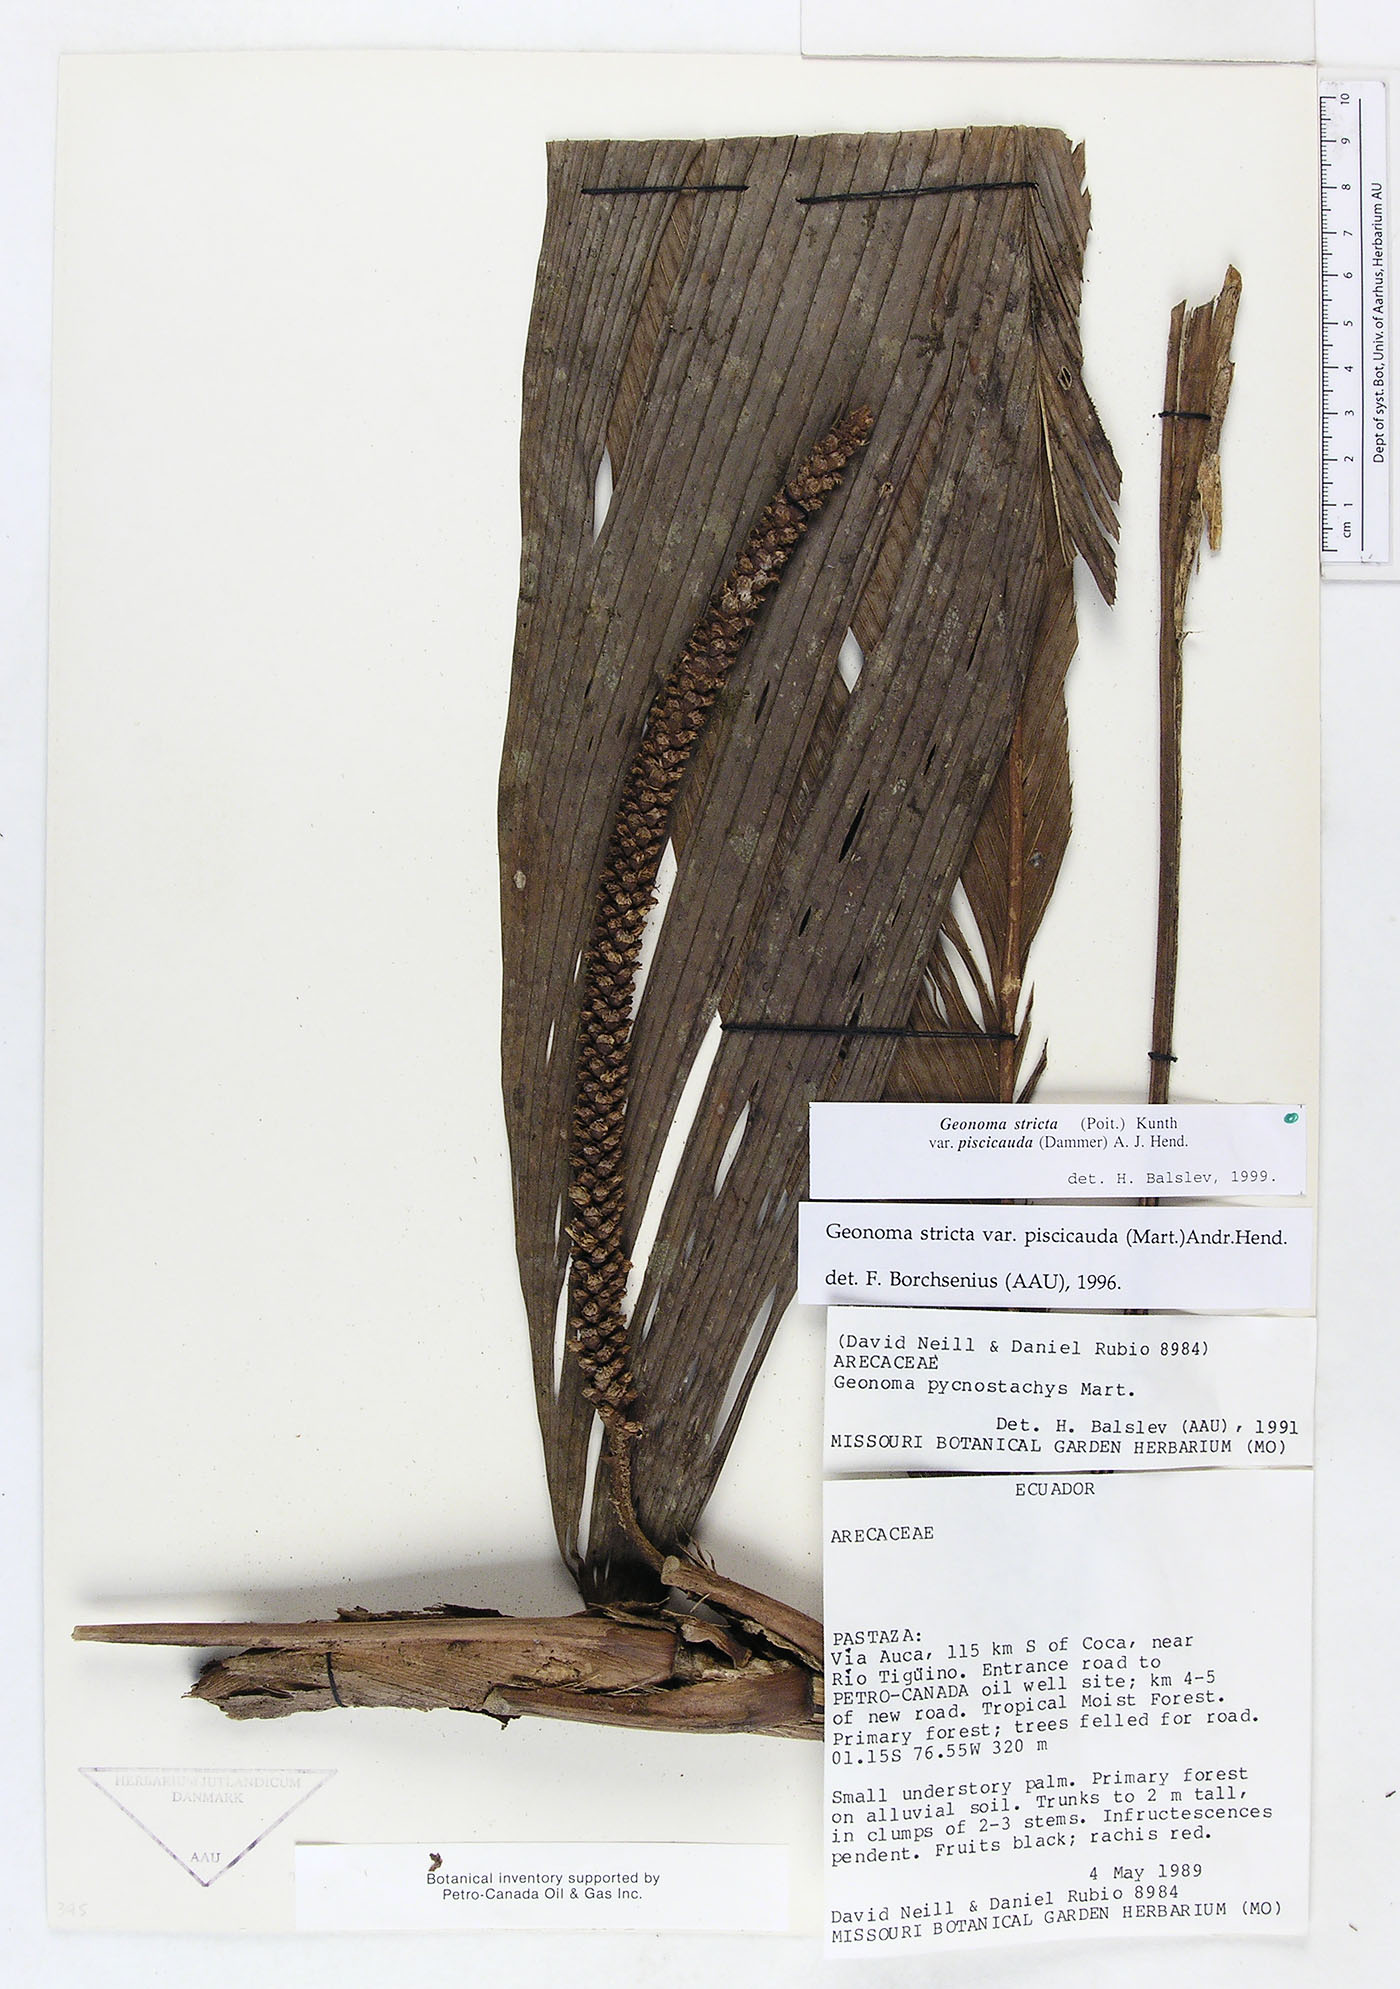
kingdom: Plantae
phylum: Tracheophyta
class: Liliopsida
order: Arecales
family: Arecaceae
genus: Geonoma
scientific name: Geonoma stricta
